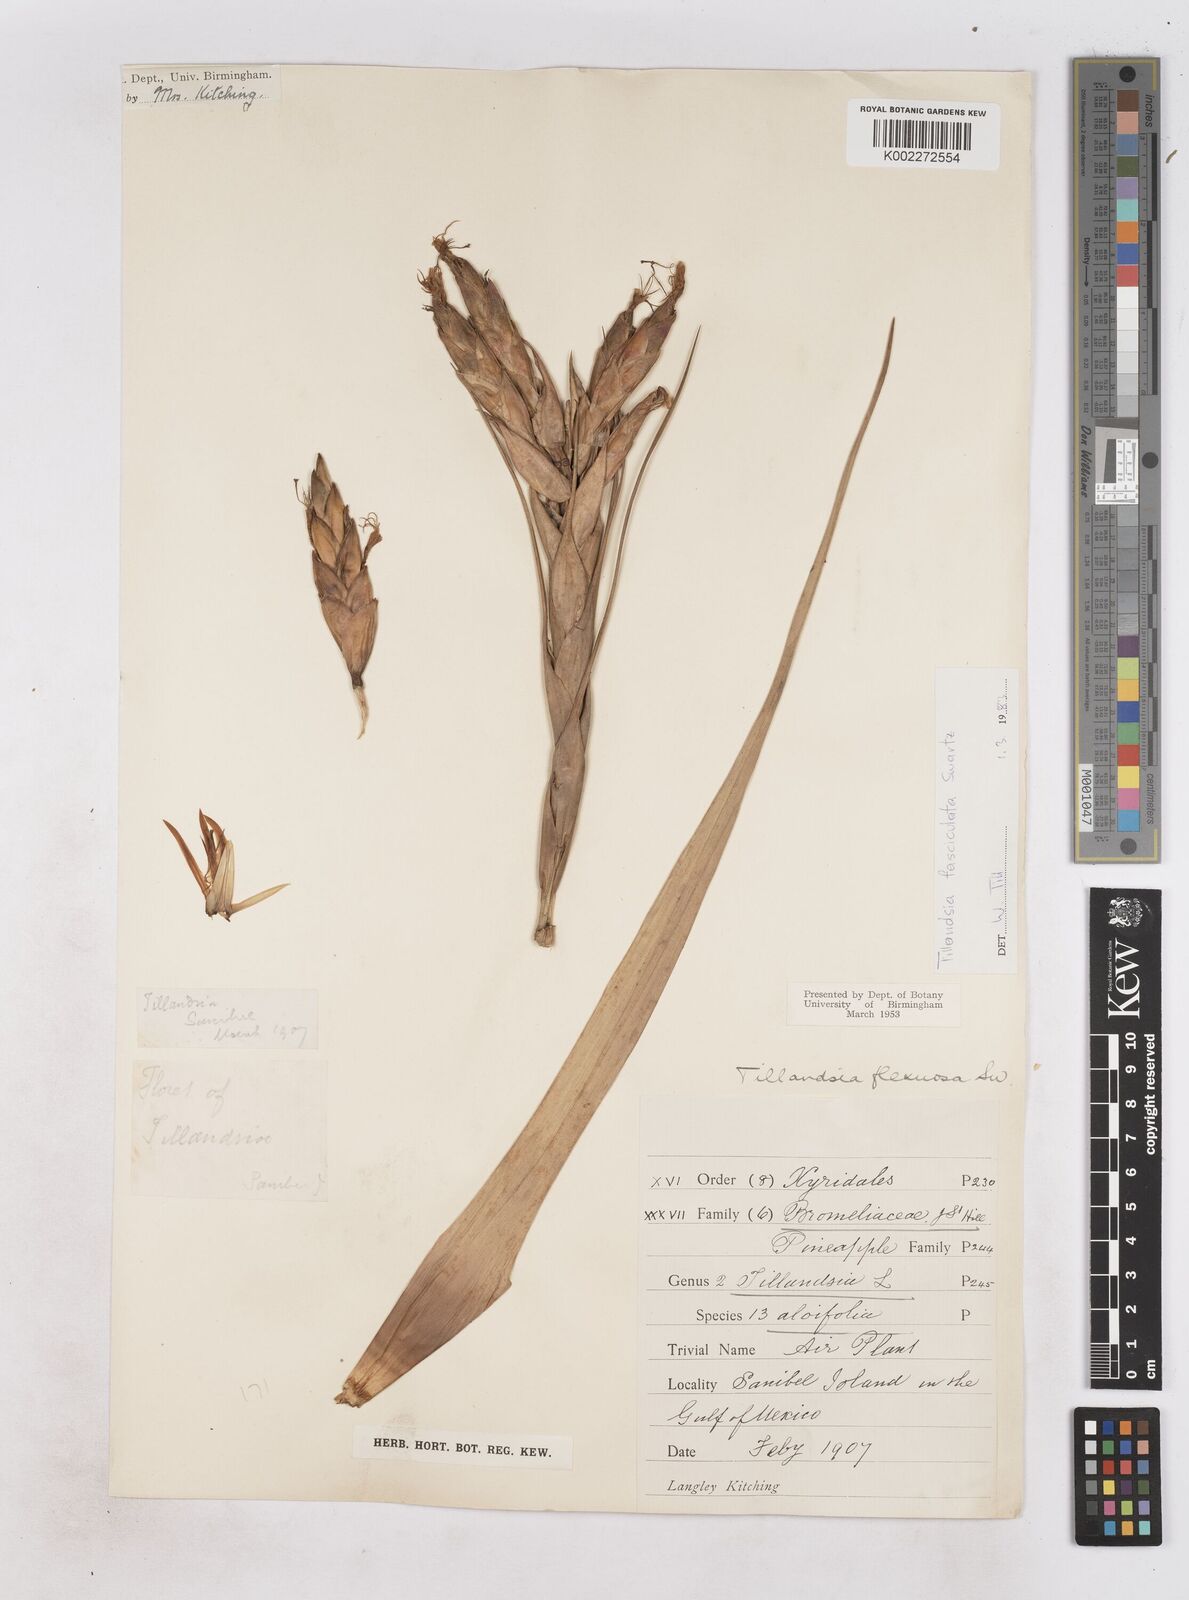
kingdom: Plantae
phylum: Tracheophyta
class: Liliopsida
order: Poales
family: Bromeliaceae
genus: Tillandsia
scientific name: Tillandsia fasciculata
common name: Giant airplant
